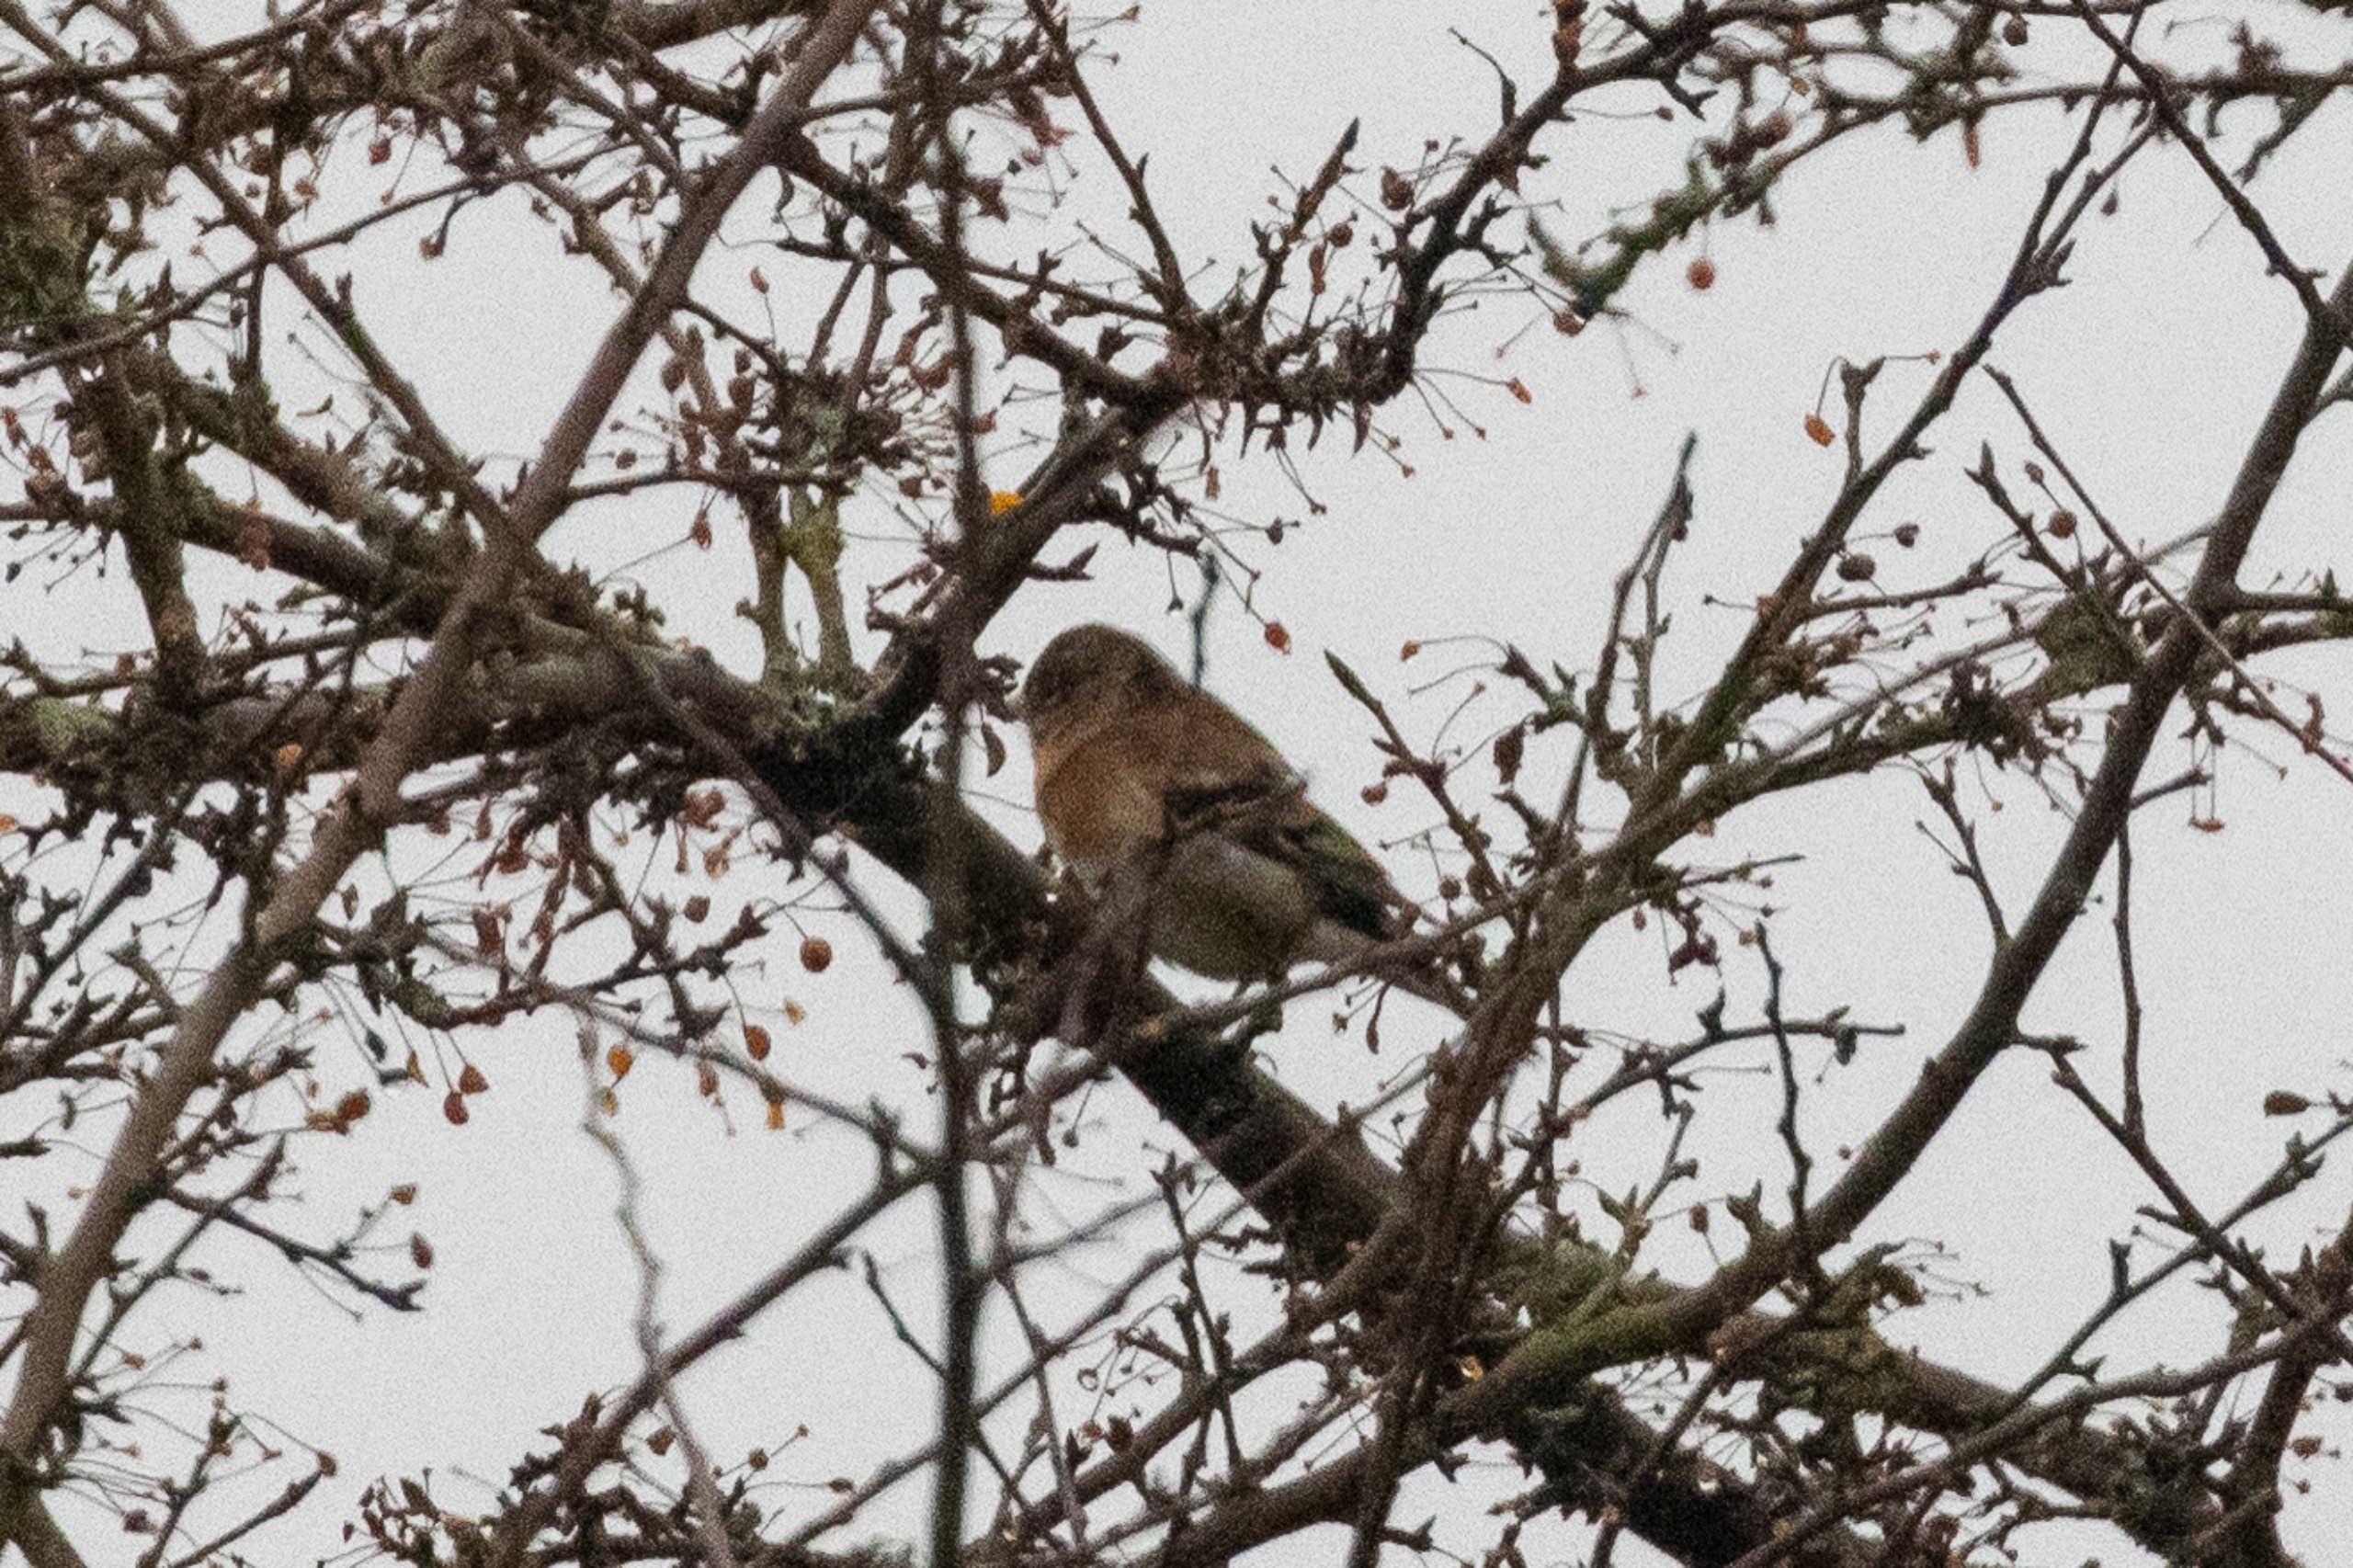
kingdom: Animalia
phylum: Chordata
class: Aves
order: Passeriformes
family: Fringillidae
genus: Fringilla
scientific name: Fringilla montifringilla
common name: Kvækerfinke
